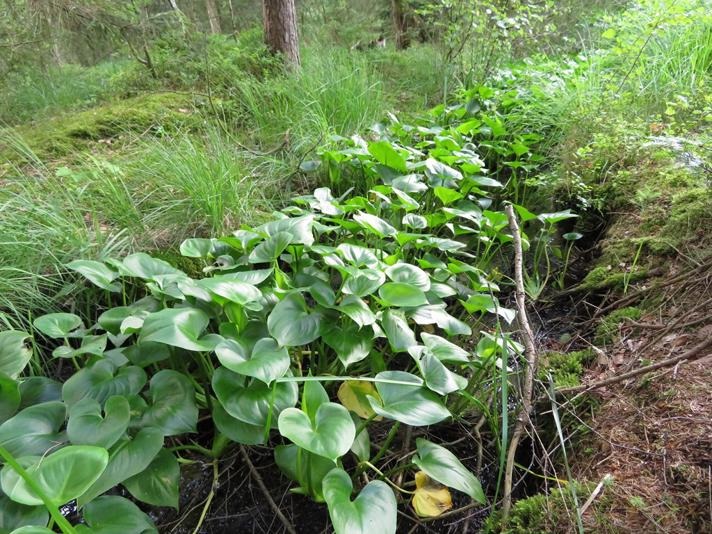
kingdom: Plantae
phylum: Tracheophyta
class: Liliopsida
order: Alismatales
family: Araceae
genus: Calla
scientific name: Calla palustris
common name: Kærmysse
